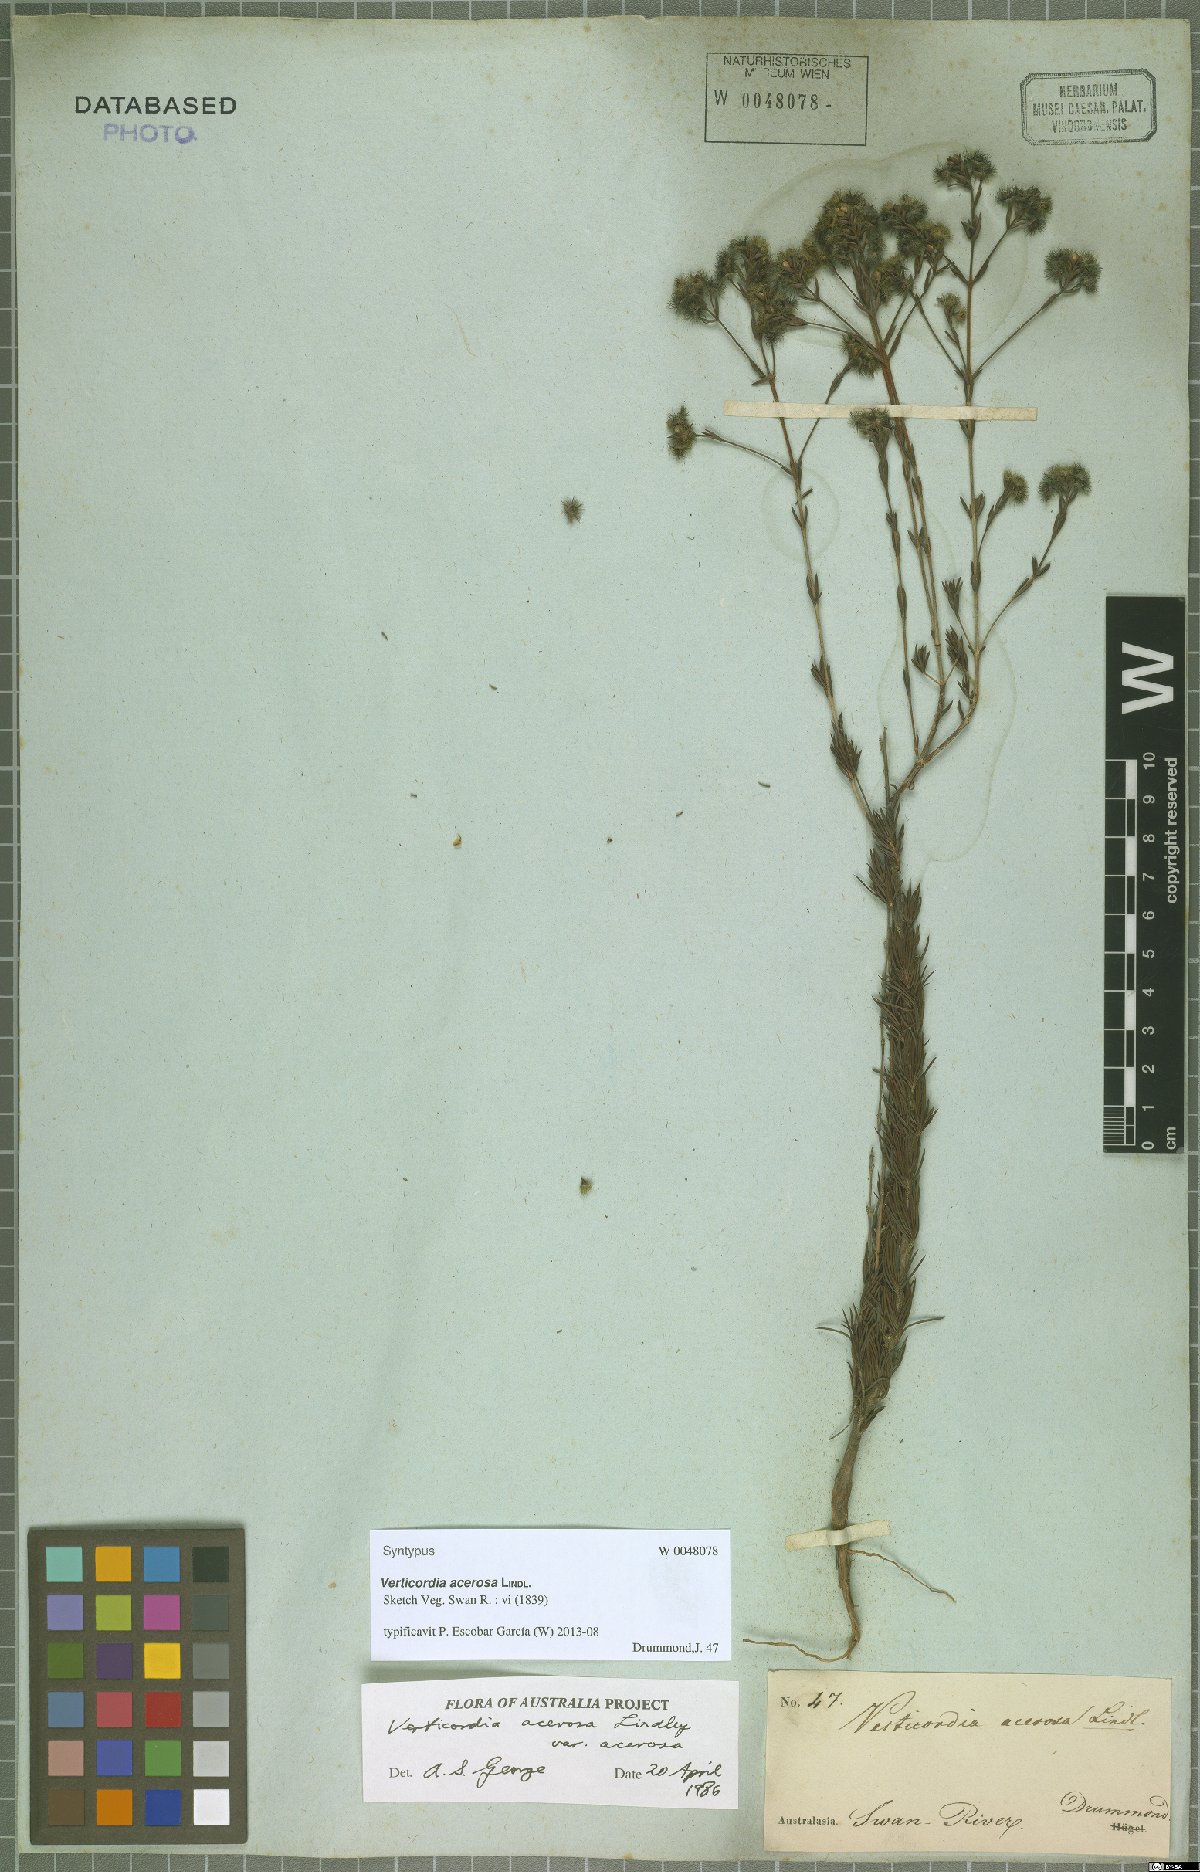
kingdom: Plantae
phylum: Tracheophyta
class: Magnoliopsida
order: Myrtales
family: Myrtaceae
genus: Verticordia
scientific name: Verticordia acerosa
